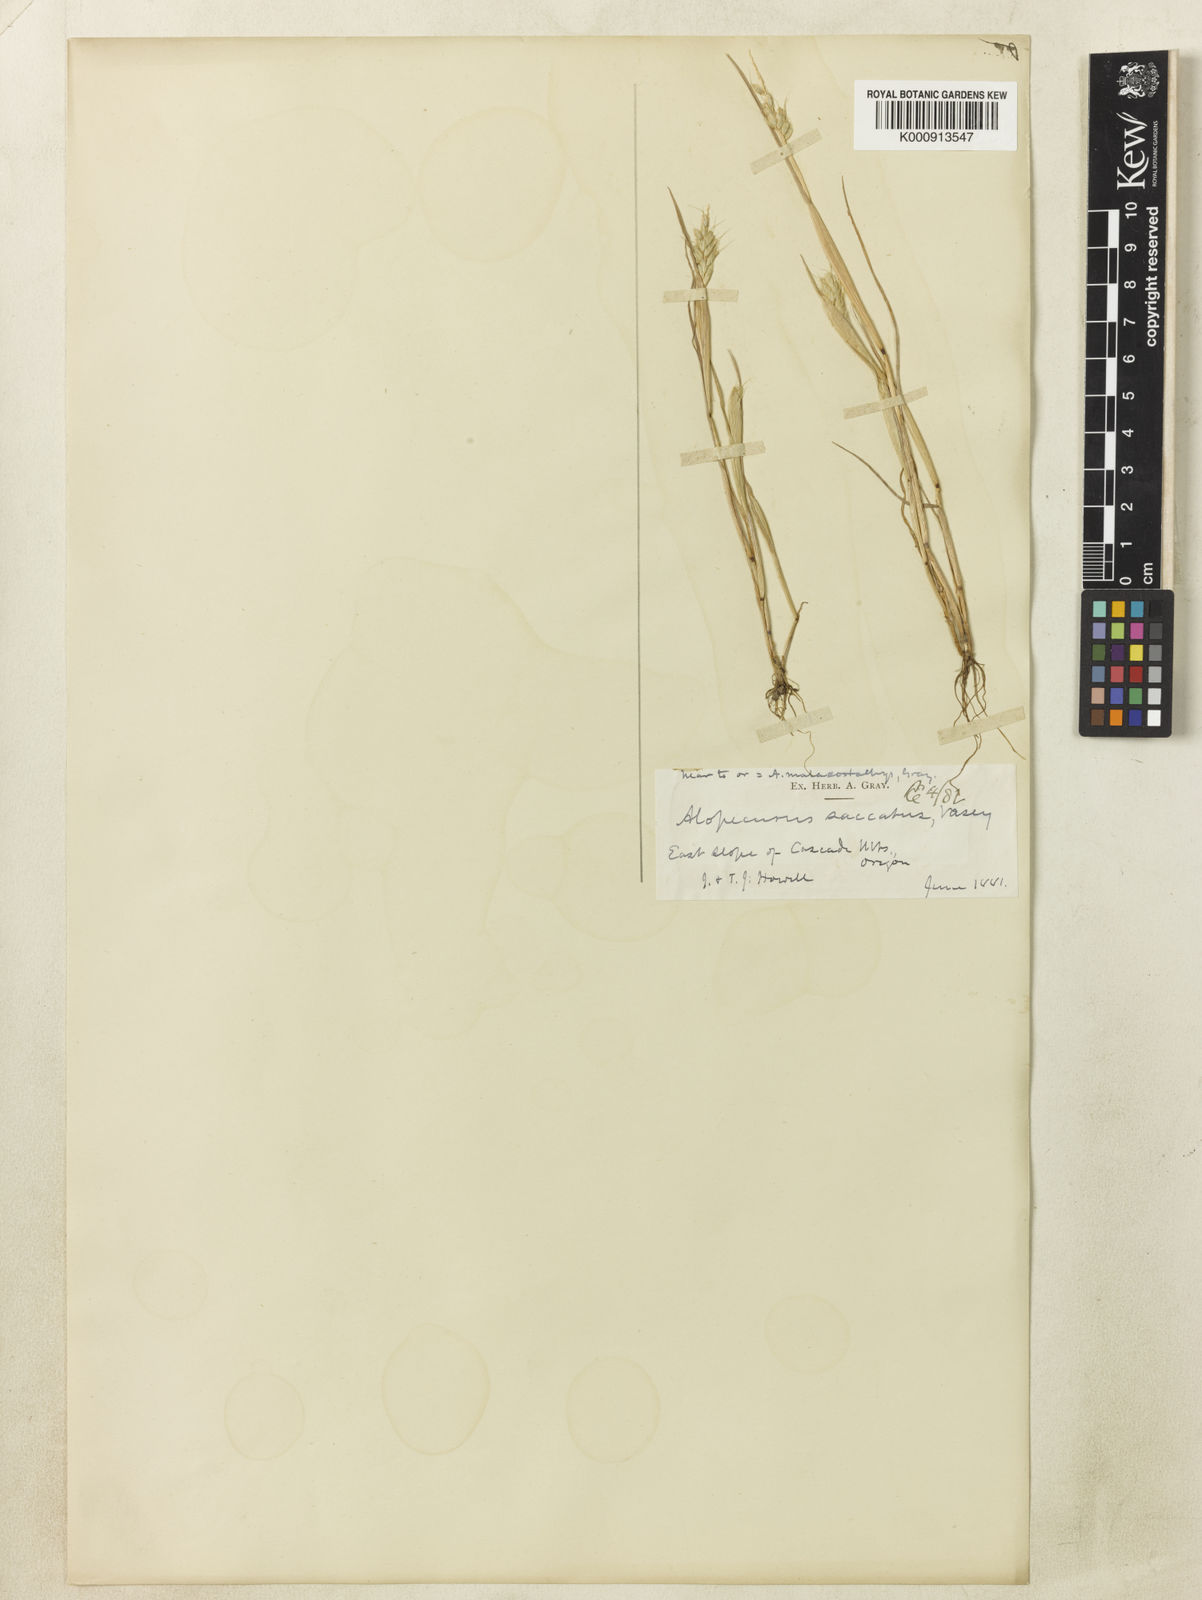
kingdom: Plantae
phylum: Tracheophyta
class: Liliopsida
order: Poales
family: Poaceae
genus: Alopecurus
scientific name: Alopecurus saccatus
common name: Pacific foxtail
